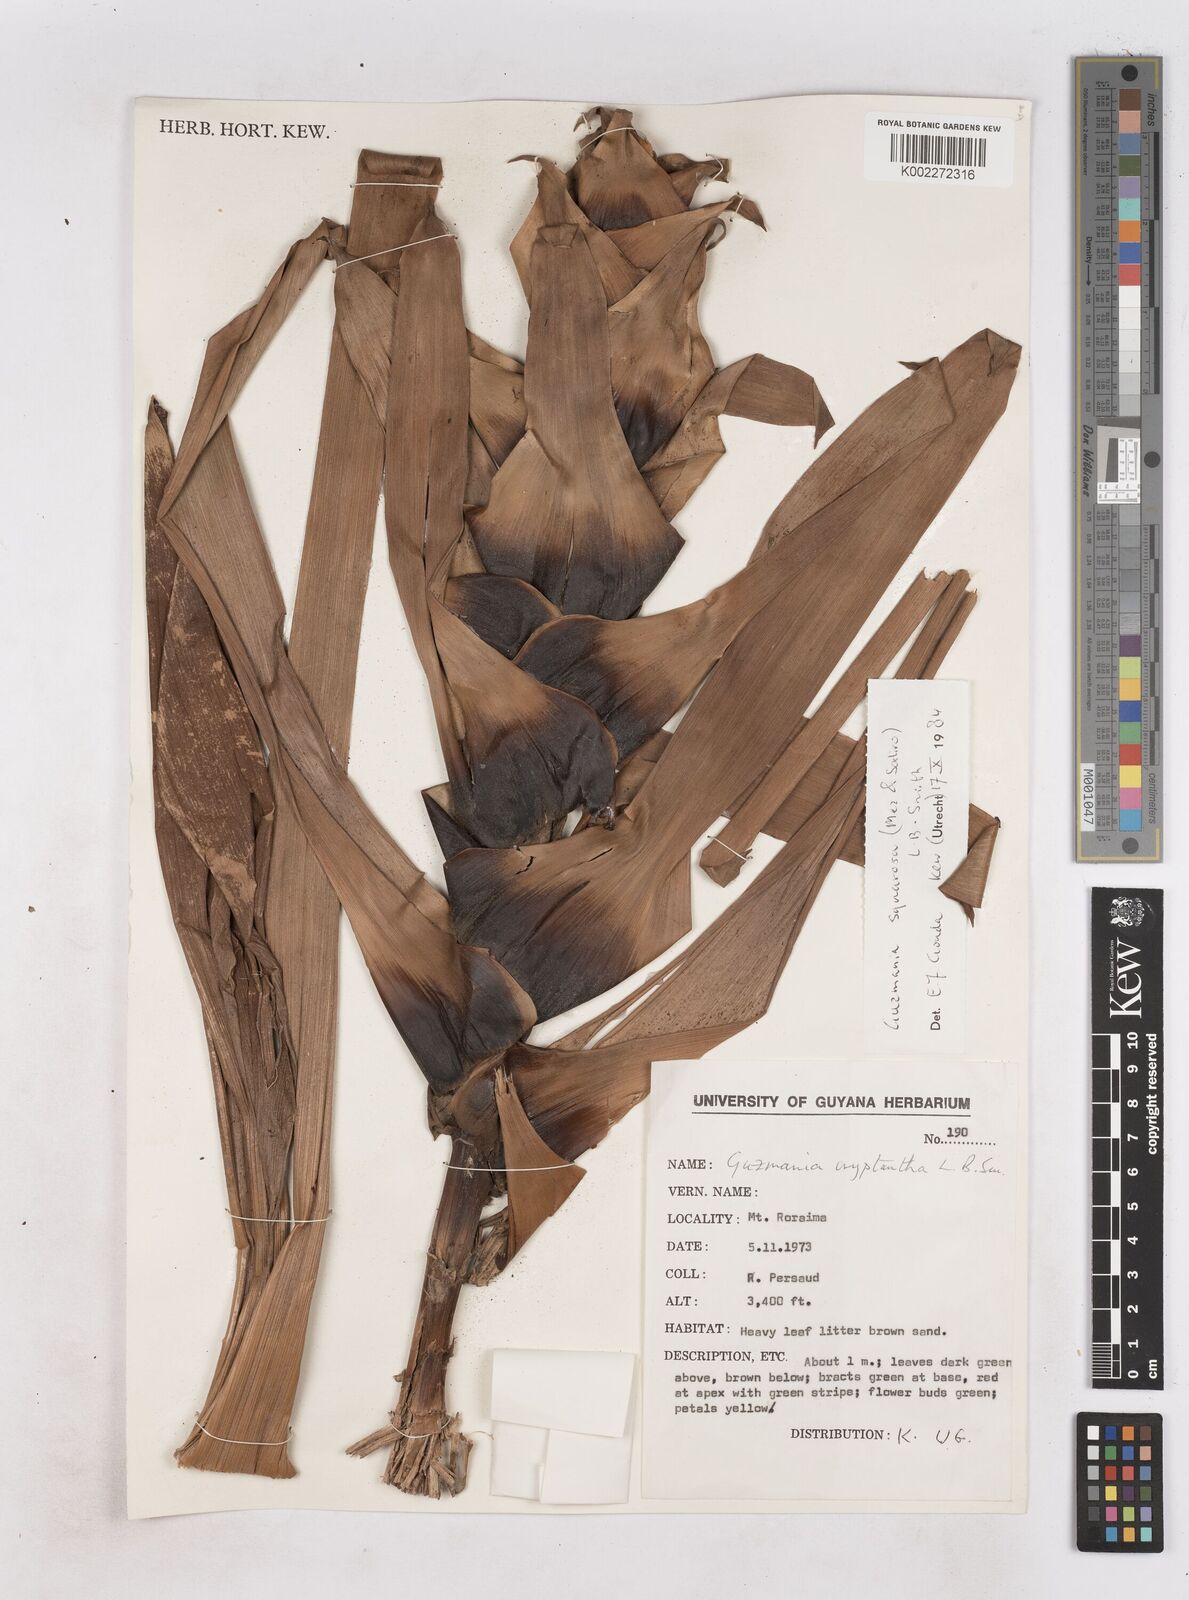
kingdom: Plantae
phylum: Tracheophyta
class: Liliopsida
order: Poales
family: Bromeliaceae
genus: Guzmania
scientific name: Guzmania squarrosa
